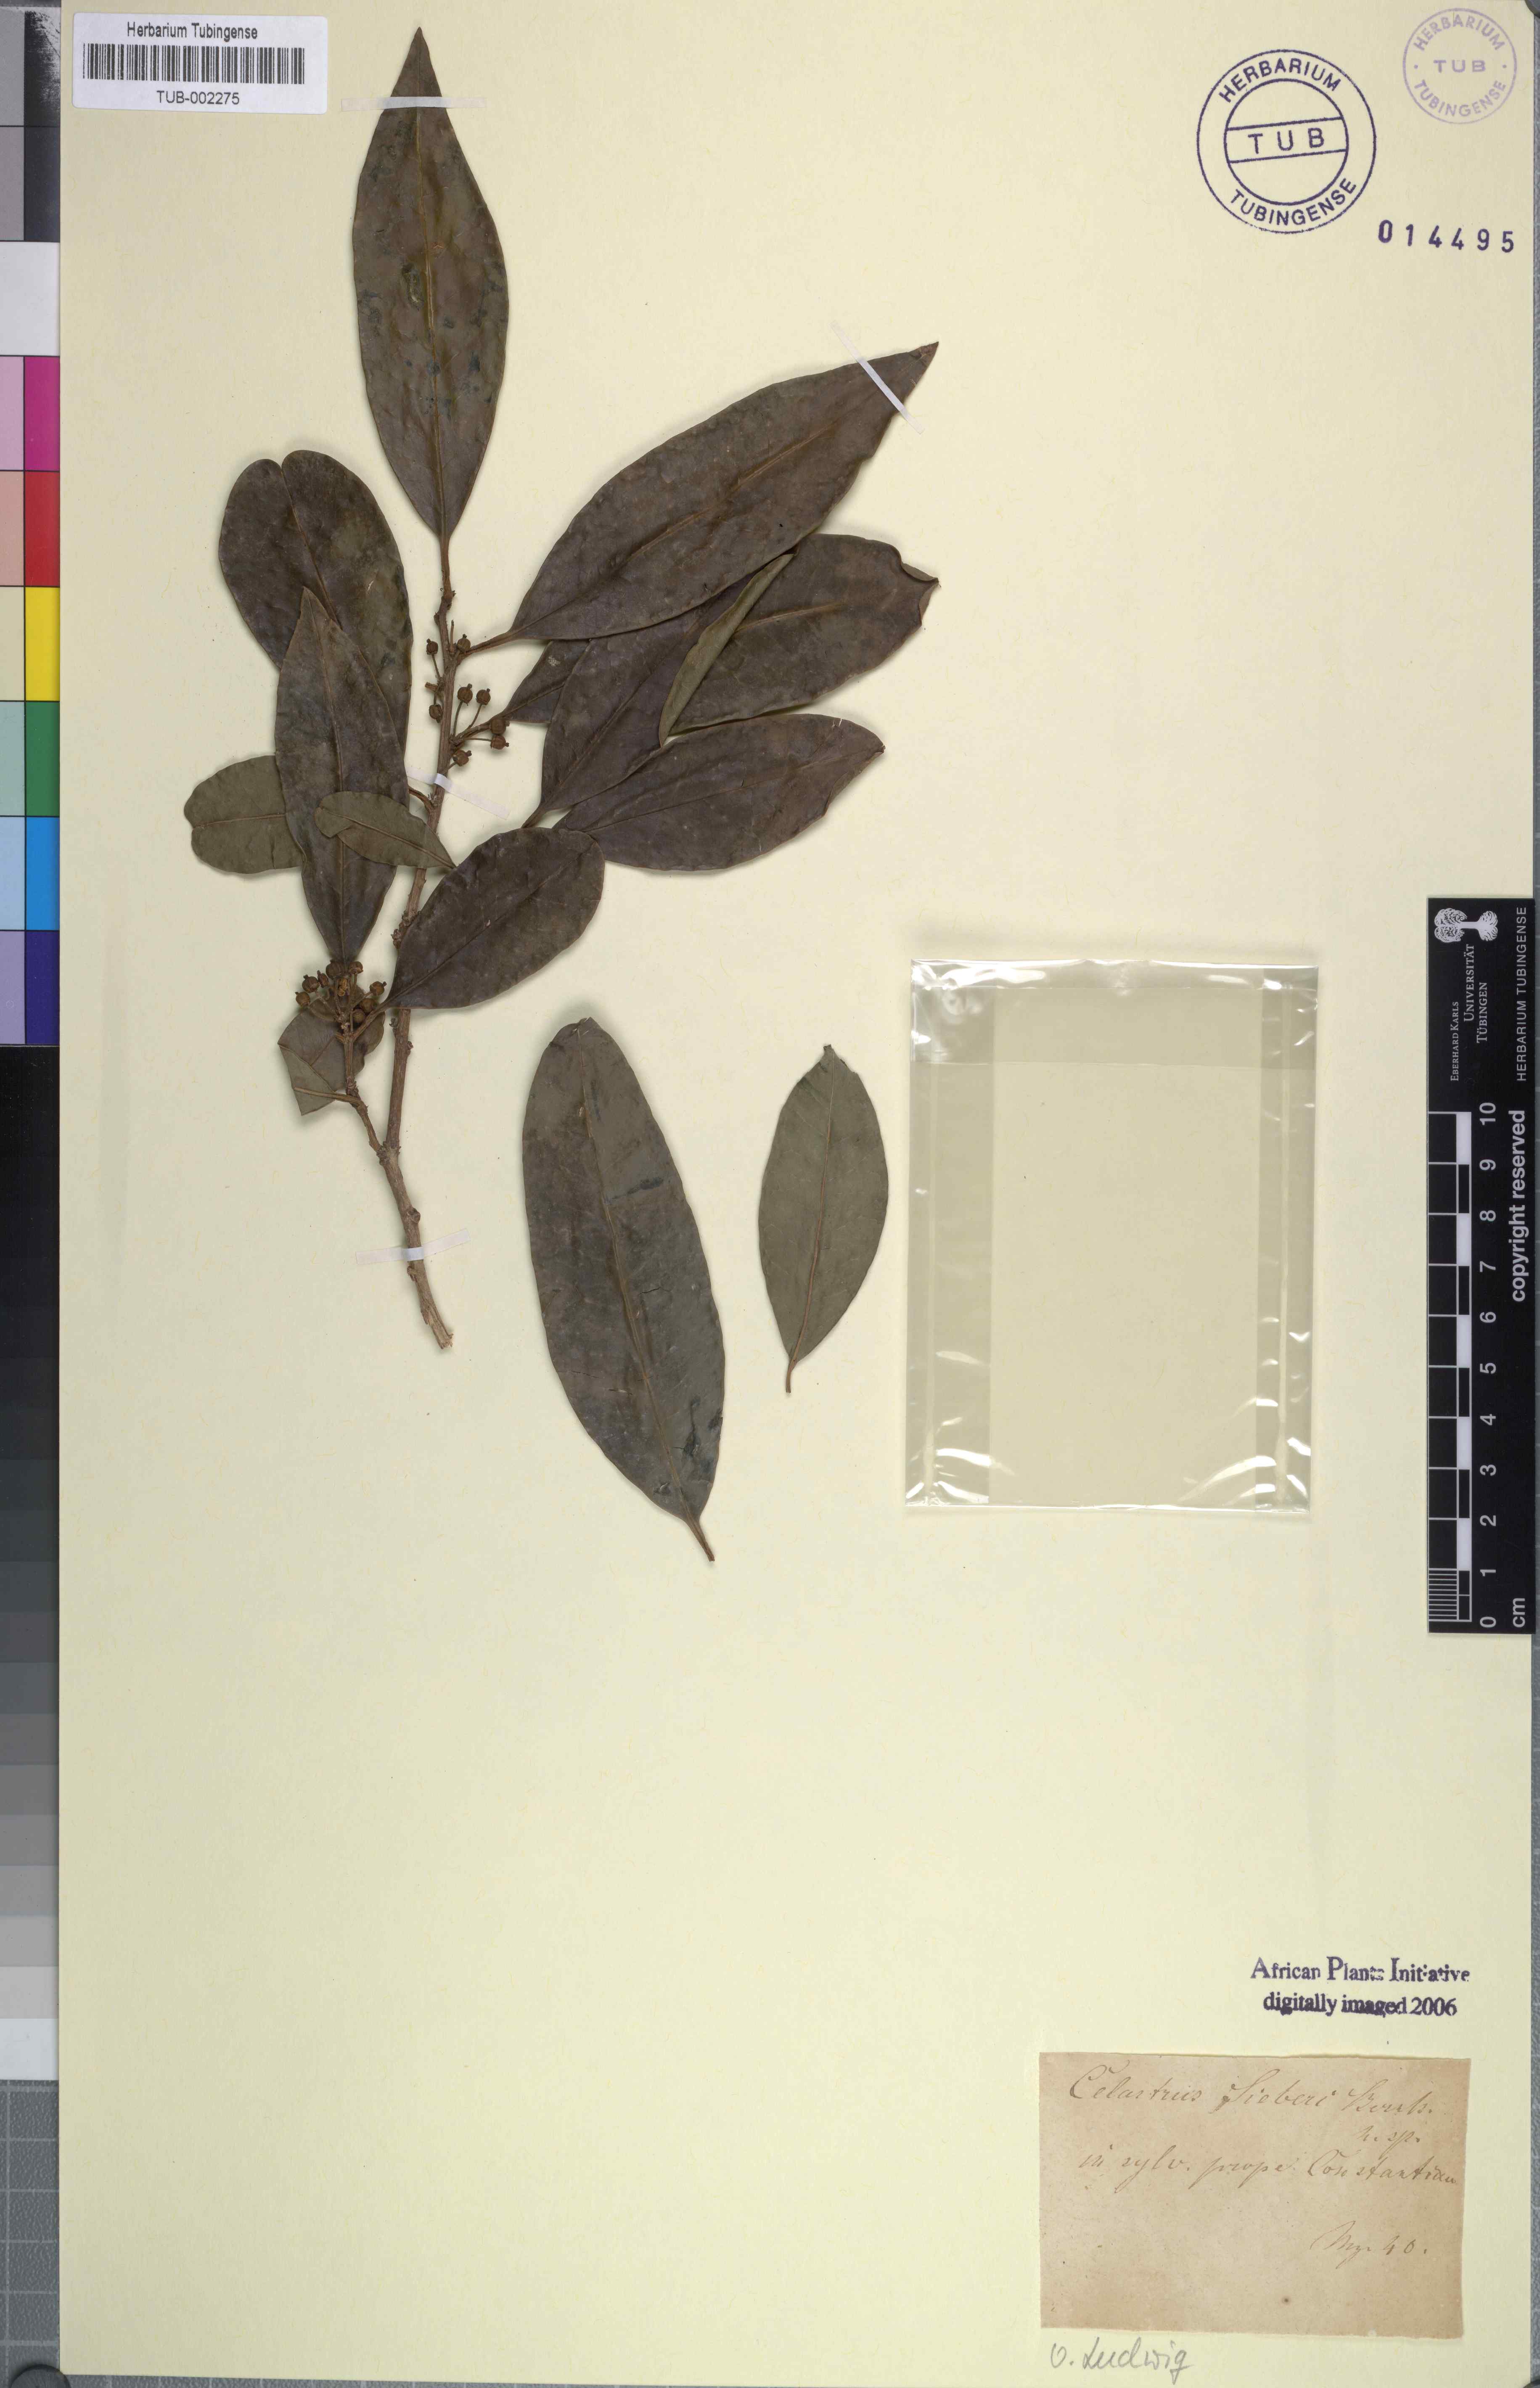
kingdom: Plantae
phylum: Tracheophyta
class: Magnoliopsida
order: Aquifoliales
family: Aquifoliaceae
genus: Ilex
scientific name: Ilex mitis
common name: African holly
